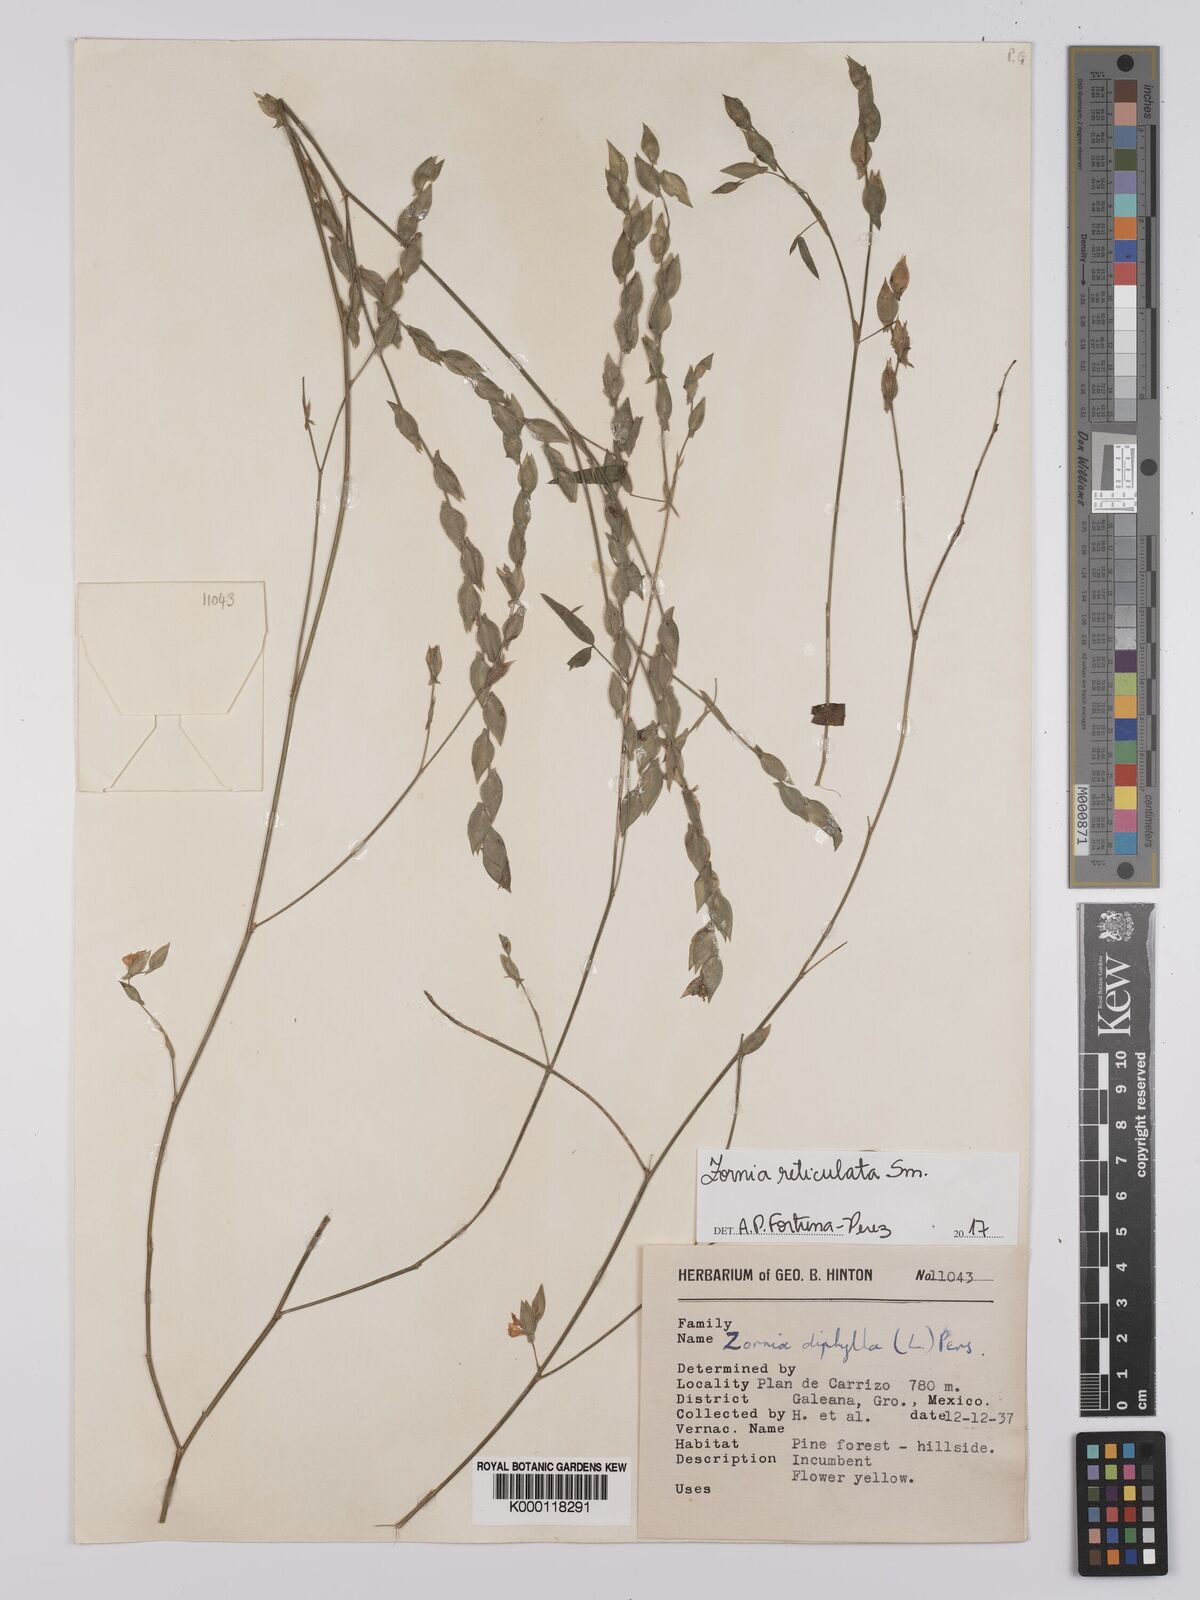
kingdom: Plantae
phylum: Tracheophyta
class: Magnoliopsida
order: Fabales
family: Fabaceae
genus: Zornia
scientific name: Zornia reticulata
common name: Reticulate viperina
